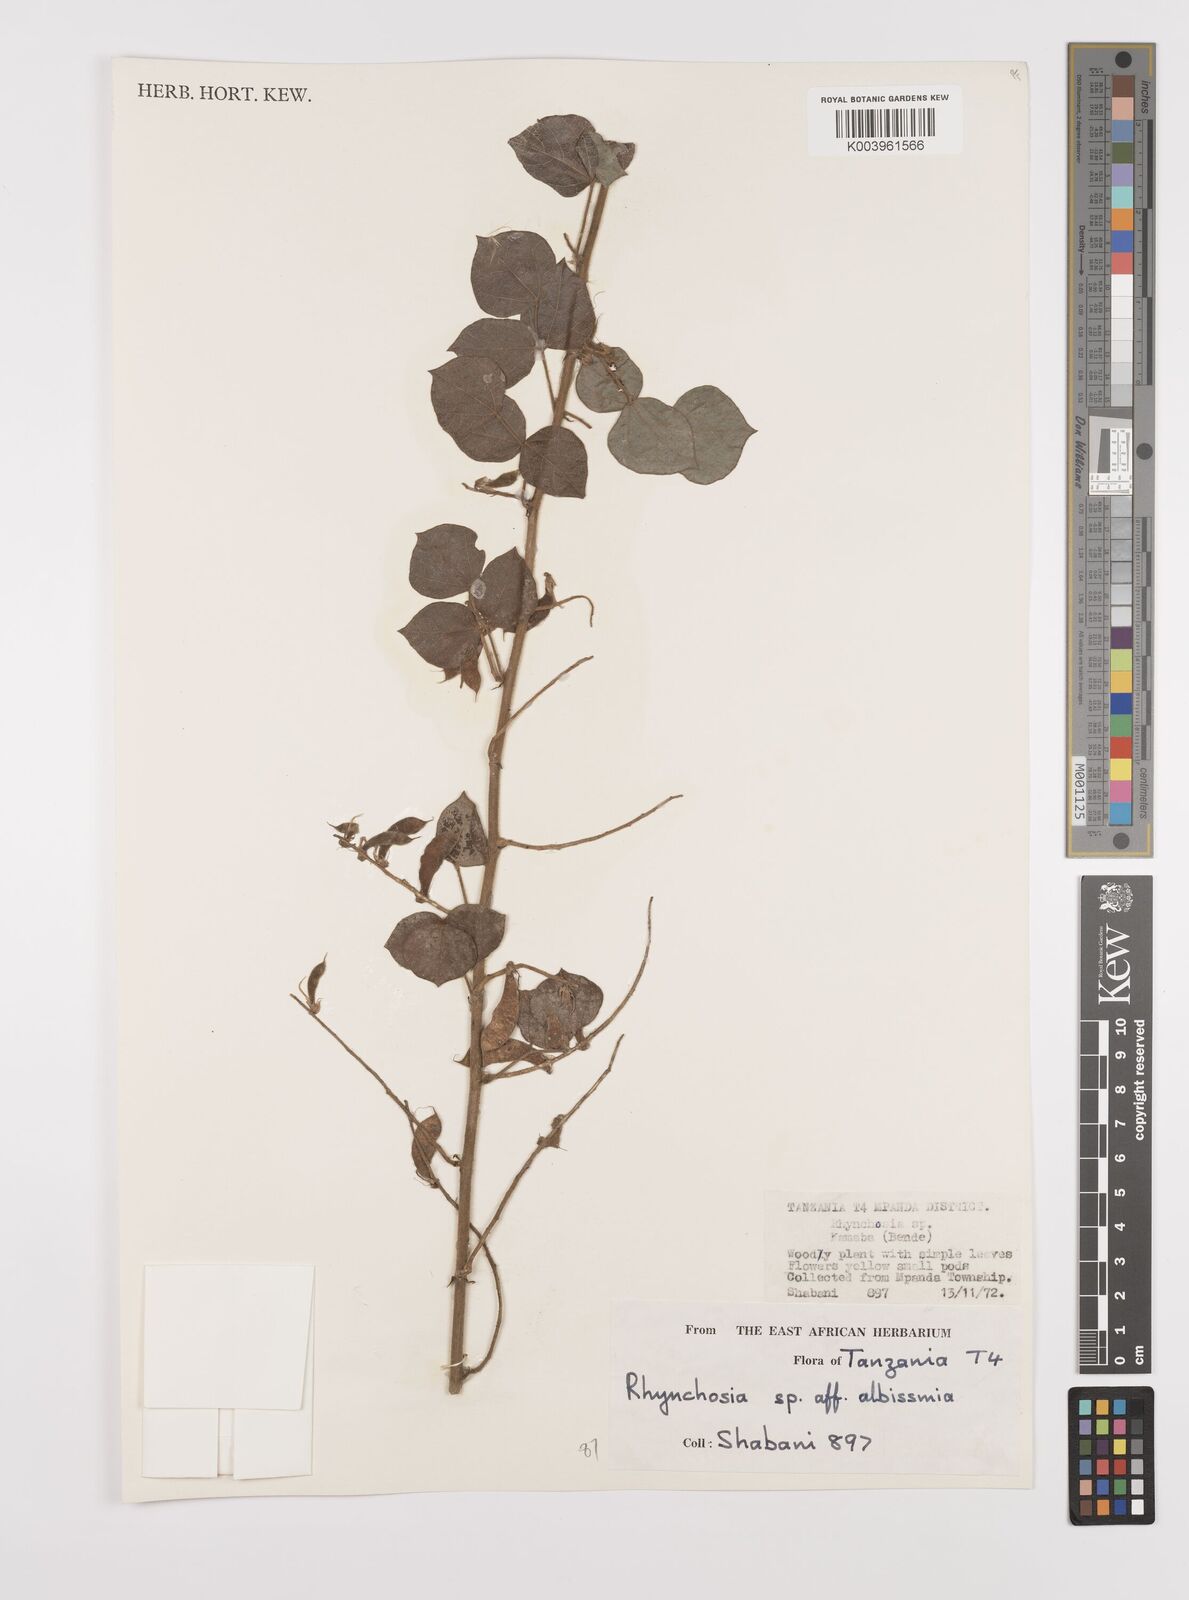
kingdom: Plantae
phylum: Tracheophyta
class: Magnoliopsida
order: Fabales
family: Fabaceae
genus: Rhynchosia
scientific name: Rhynchosia albissima
